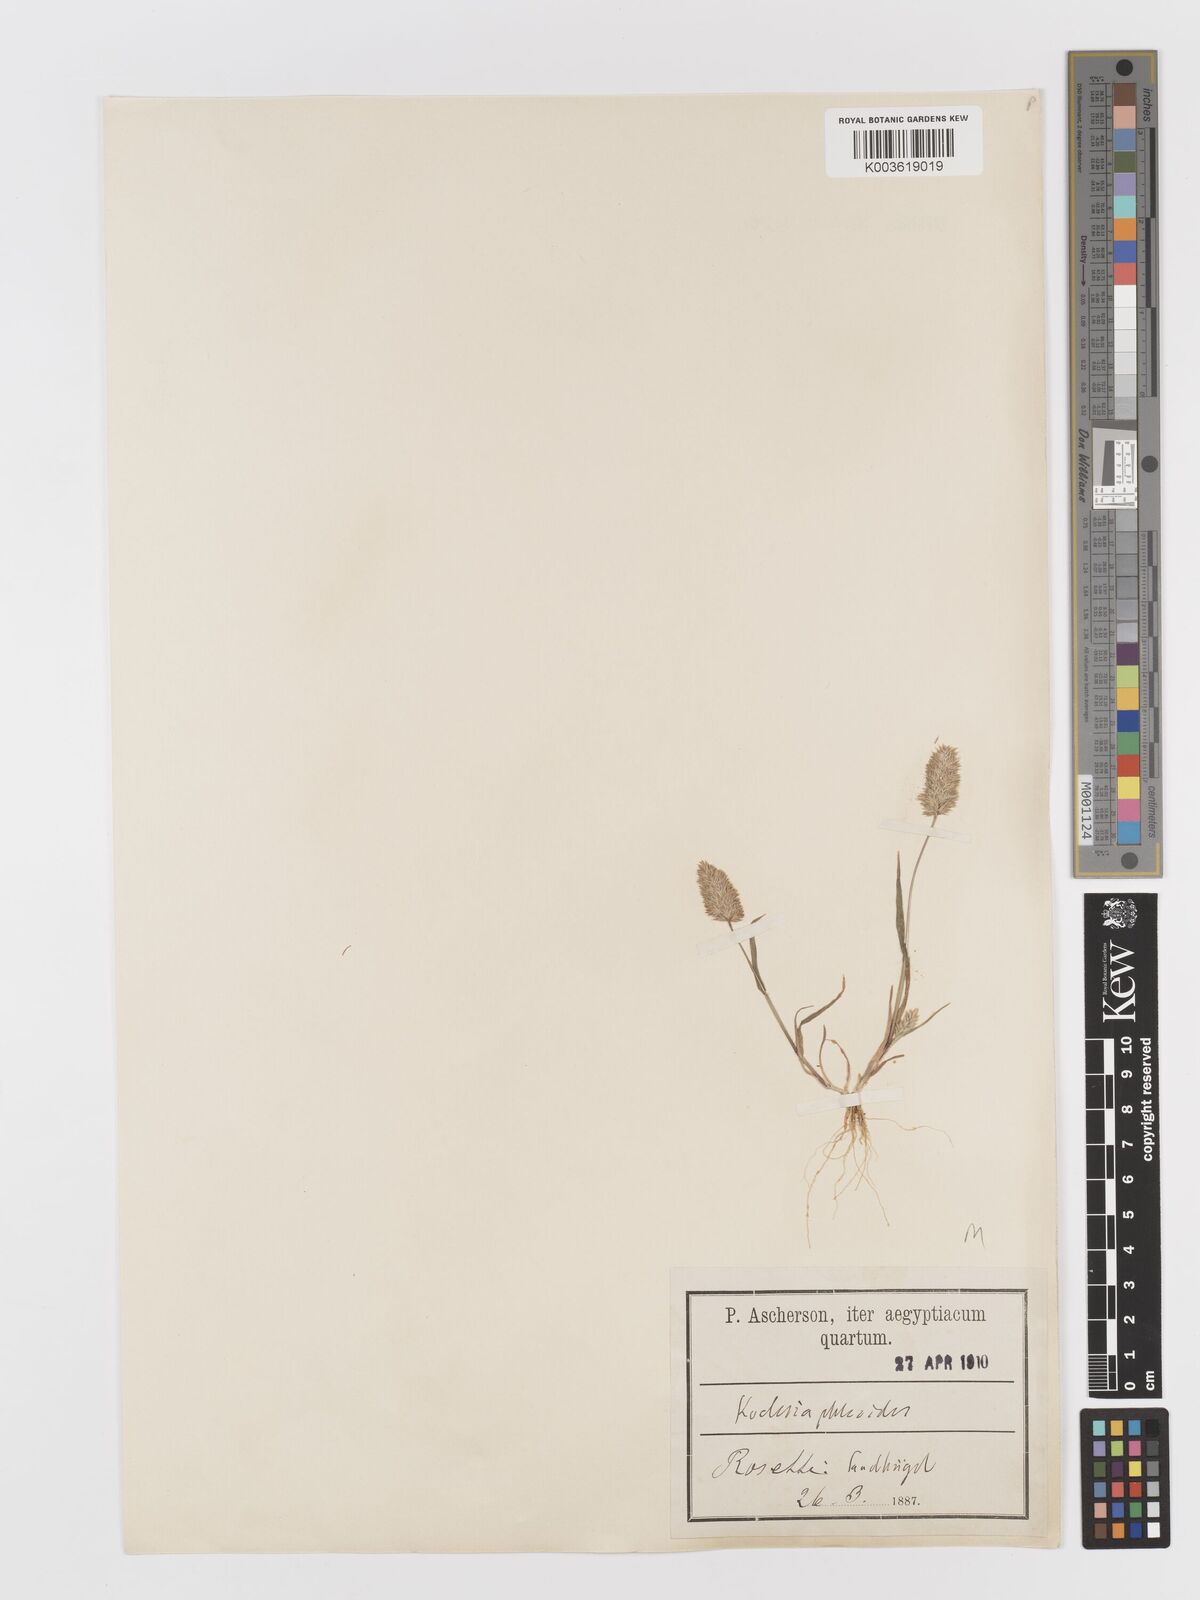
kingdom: Plantae
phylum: Tracheophyta
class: Liliopsida
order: Poales
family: Poaceae
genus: Rostraria
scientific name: Rostraria cristata
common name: Mediterranean hair-grass
